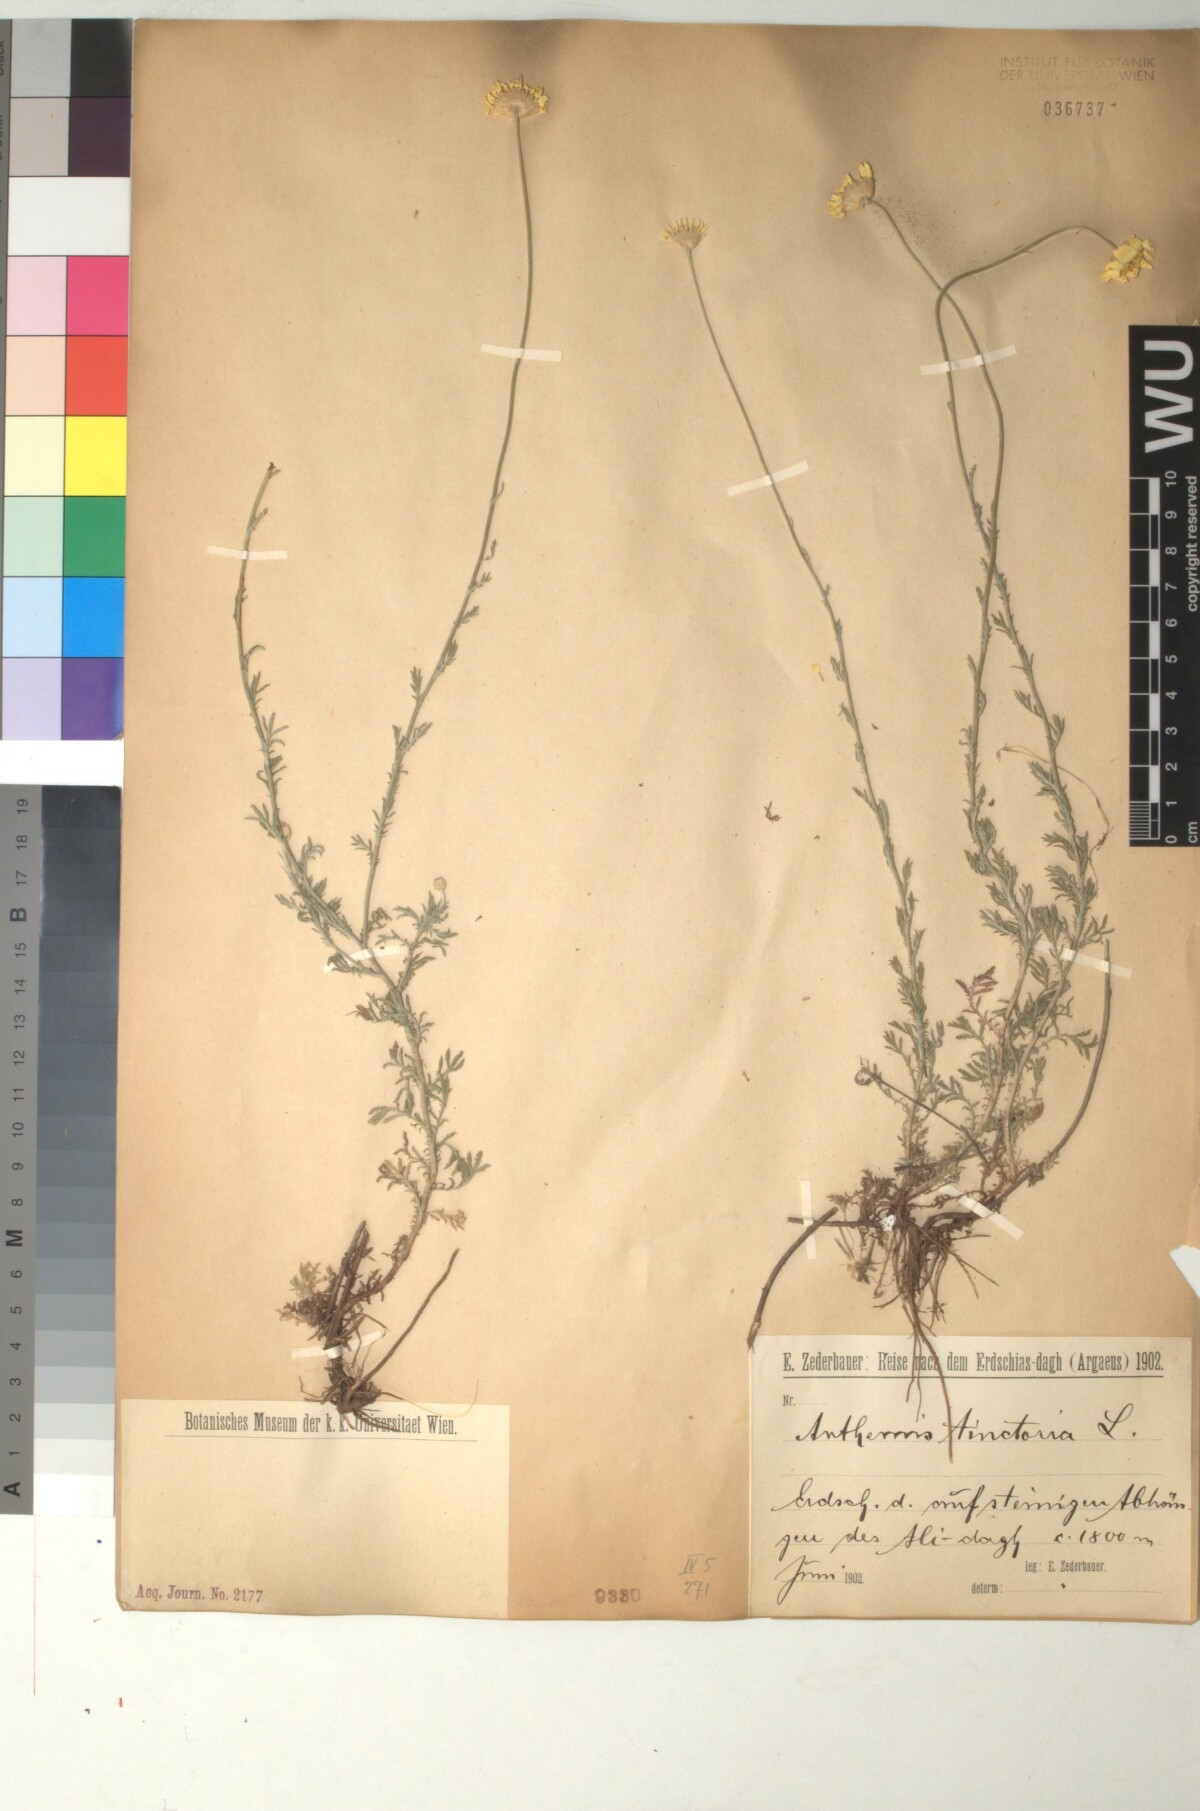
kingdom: Plantae
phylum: Tracheophyta
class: Magnoliopsida
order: Asterales
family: Asteraceae
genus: Cota
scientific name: Cota tinctoria
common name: Golden chamomile
